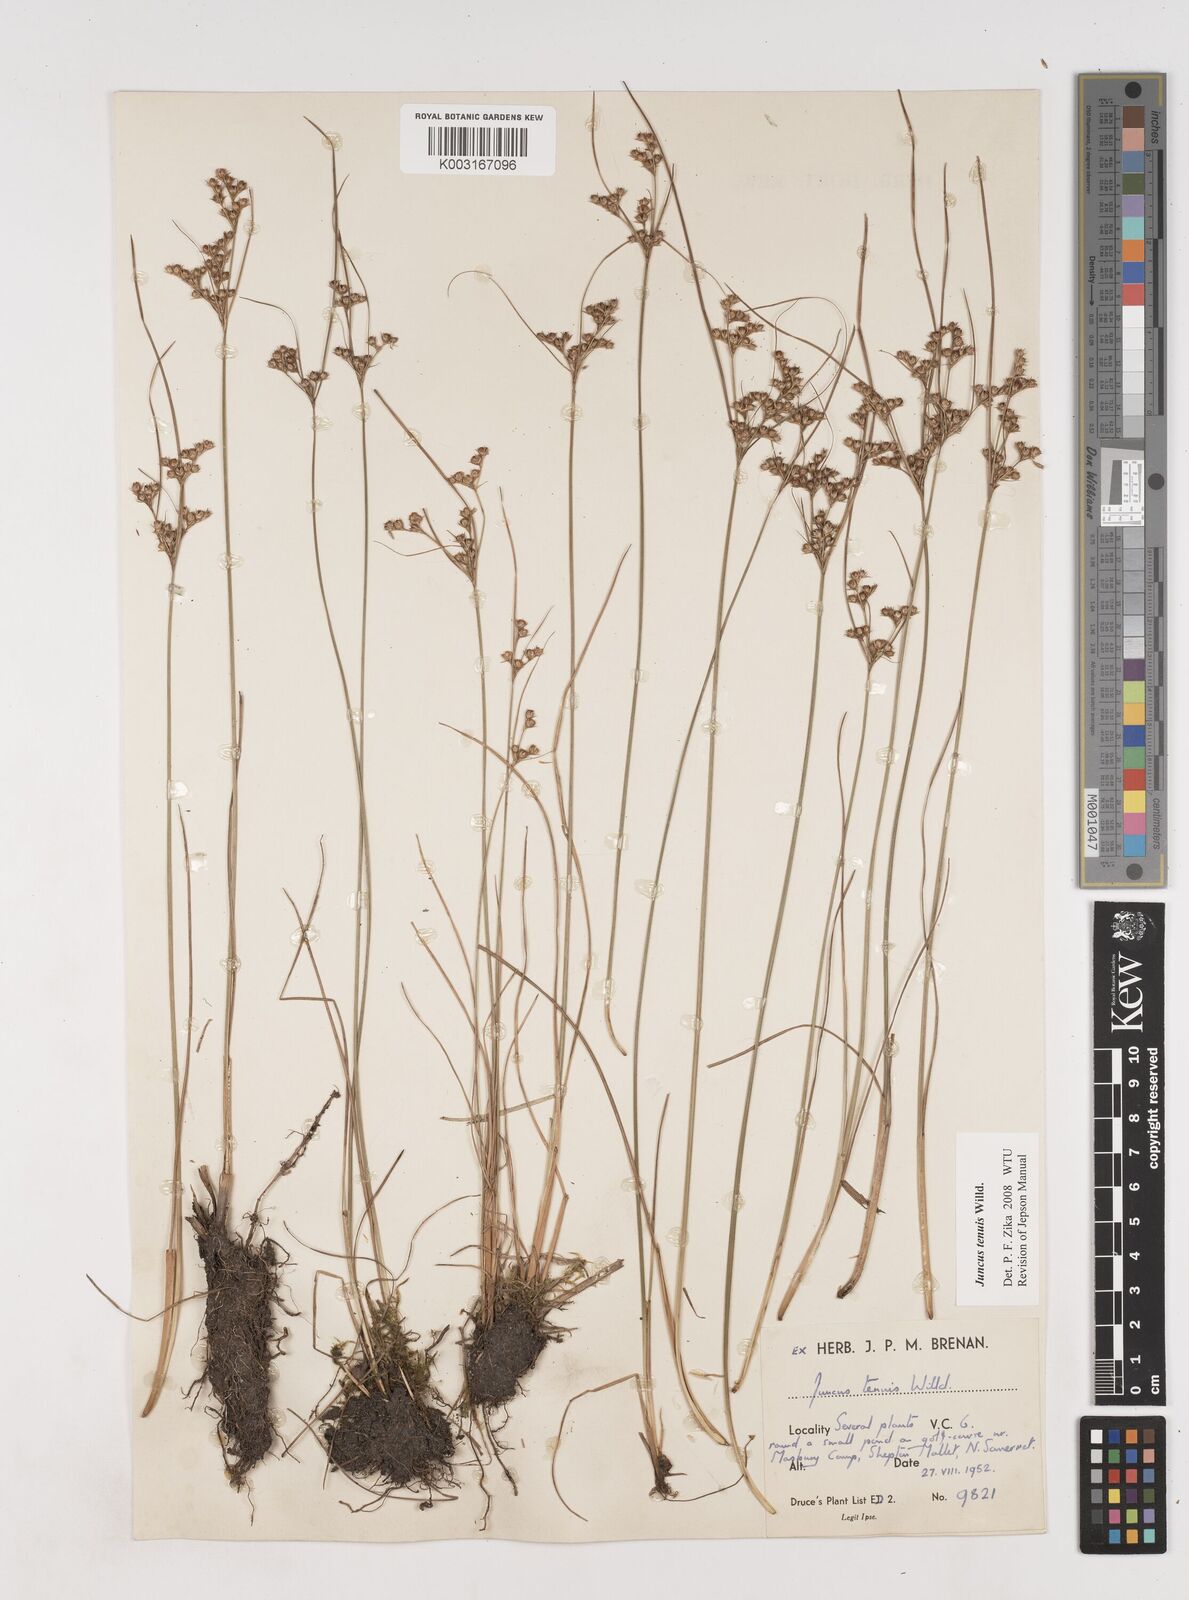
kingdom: Plantae
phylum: Tracheophyta
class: Liliopsida
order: Poales
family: Juncaceae
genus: Juncus
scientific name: Juncus tenuis
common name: Slender rush
